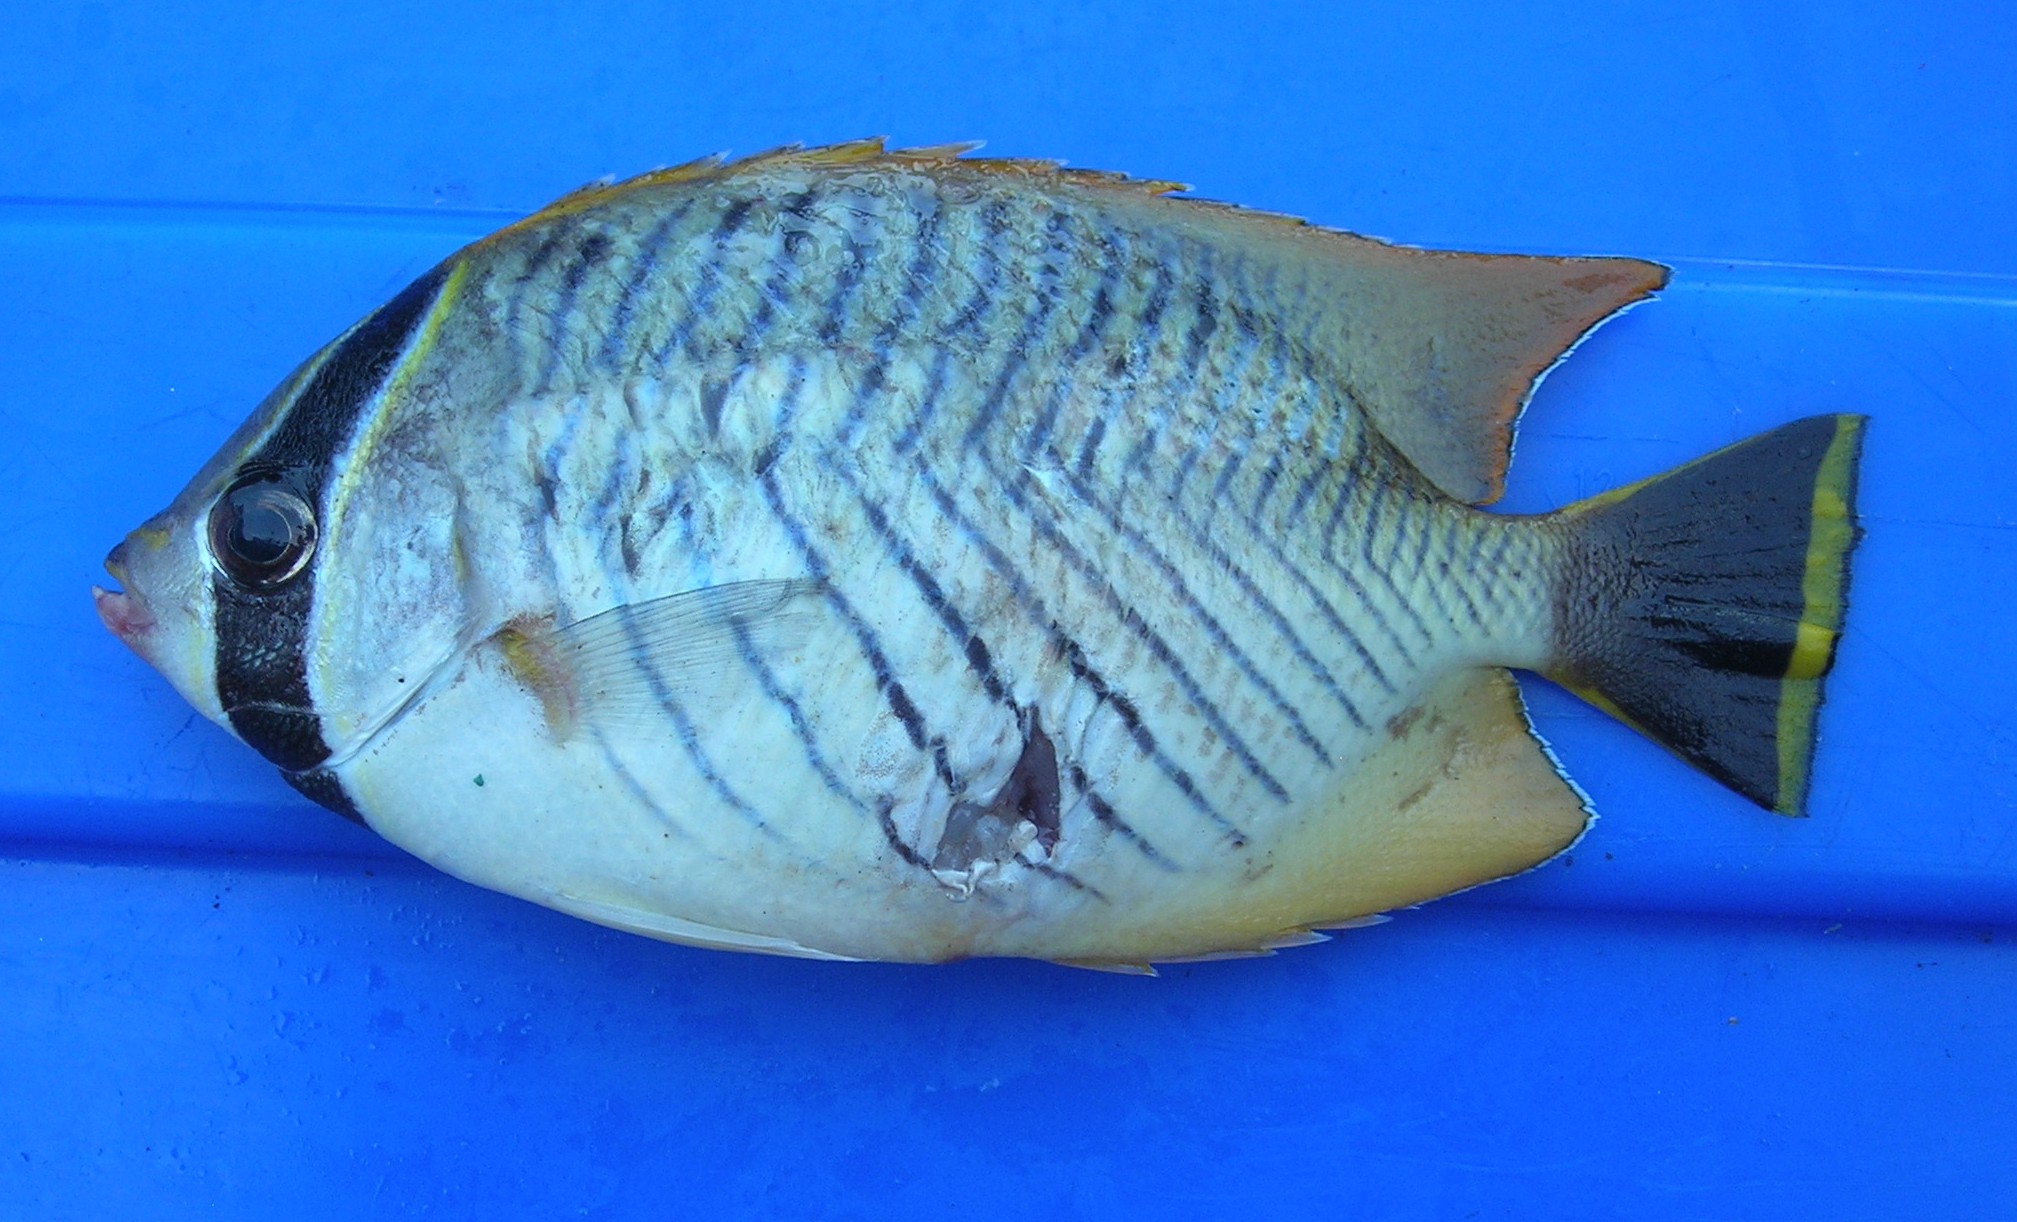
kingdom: Animalia
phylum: Chordata
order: Perciformes
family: Chaetodontidae
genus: Chaetodon
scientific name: Chaetodon trifascialis
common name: Chevroned butterflyfish
